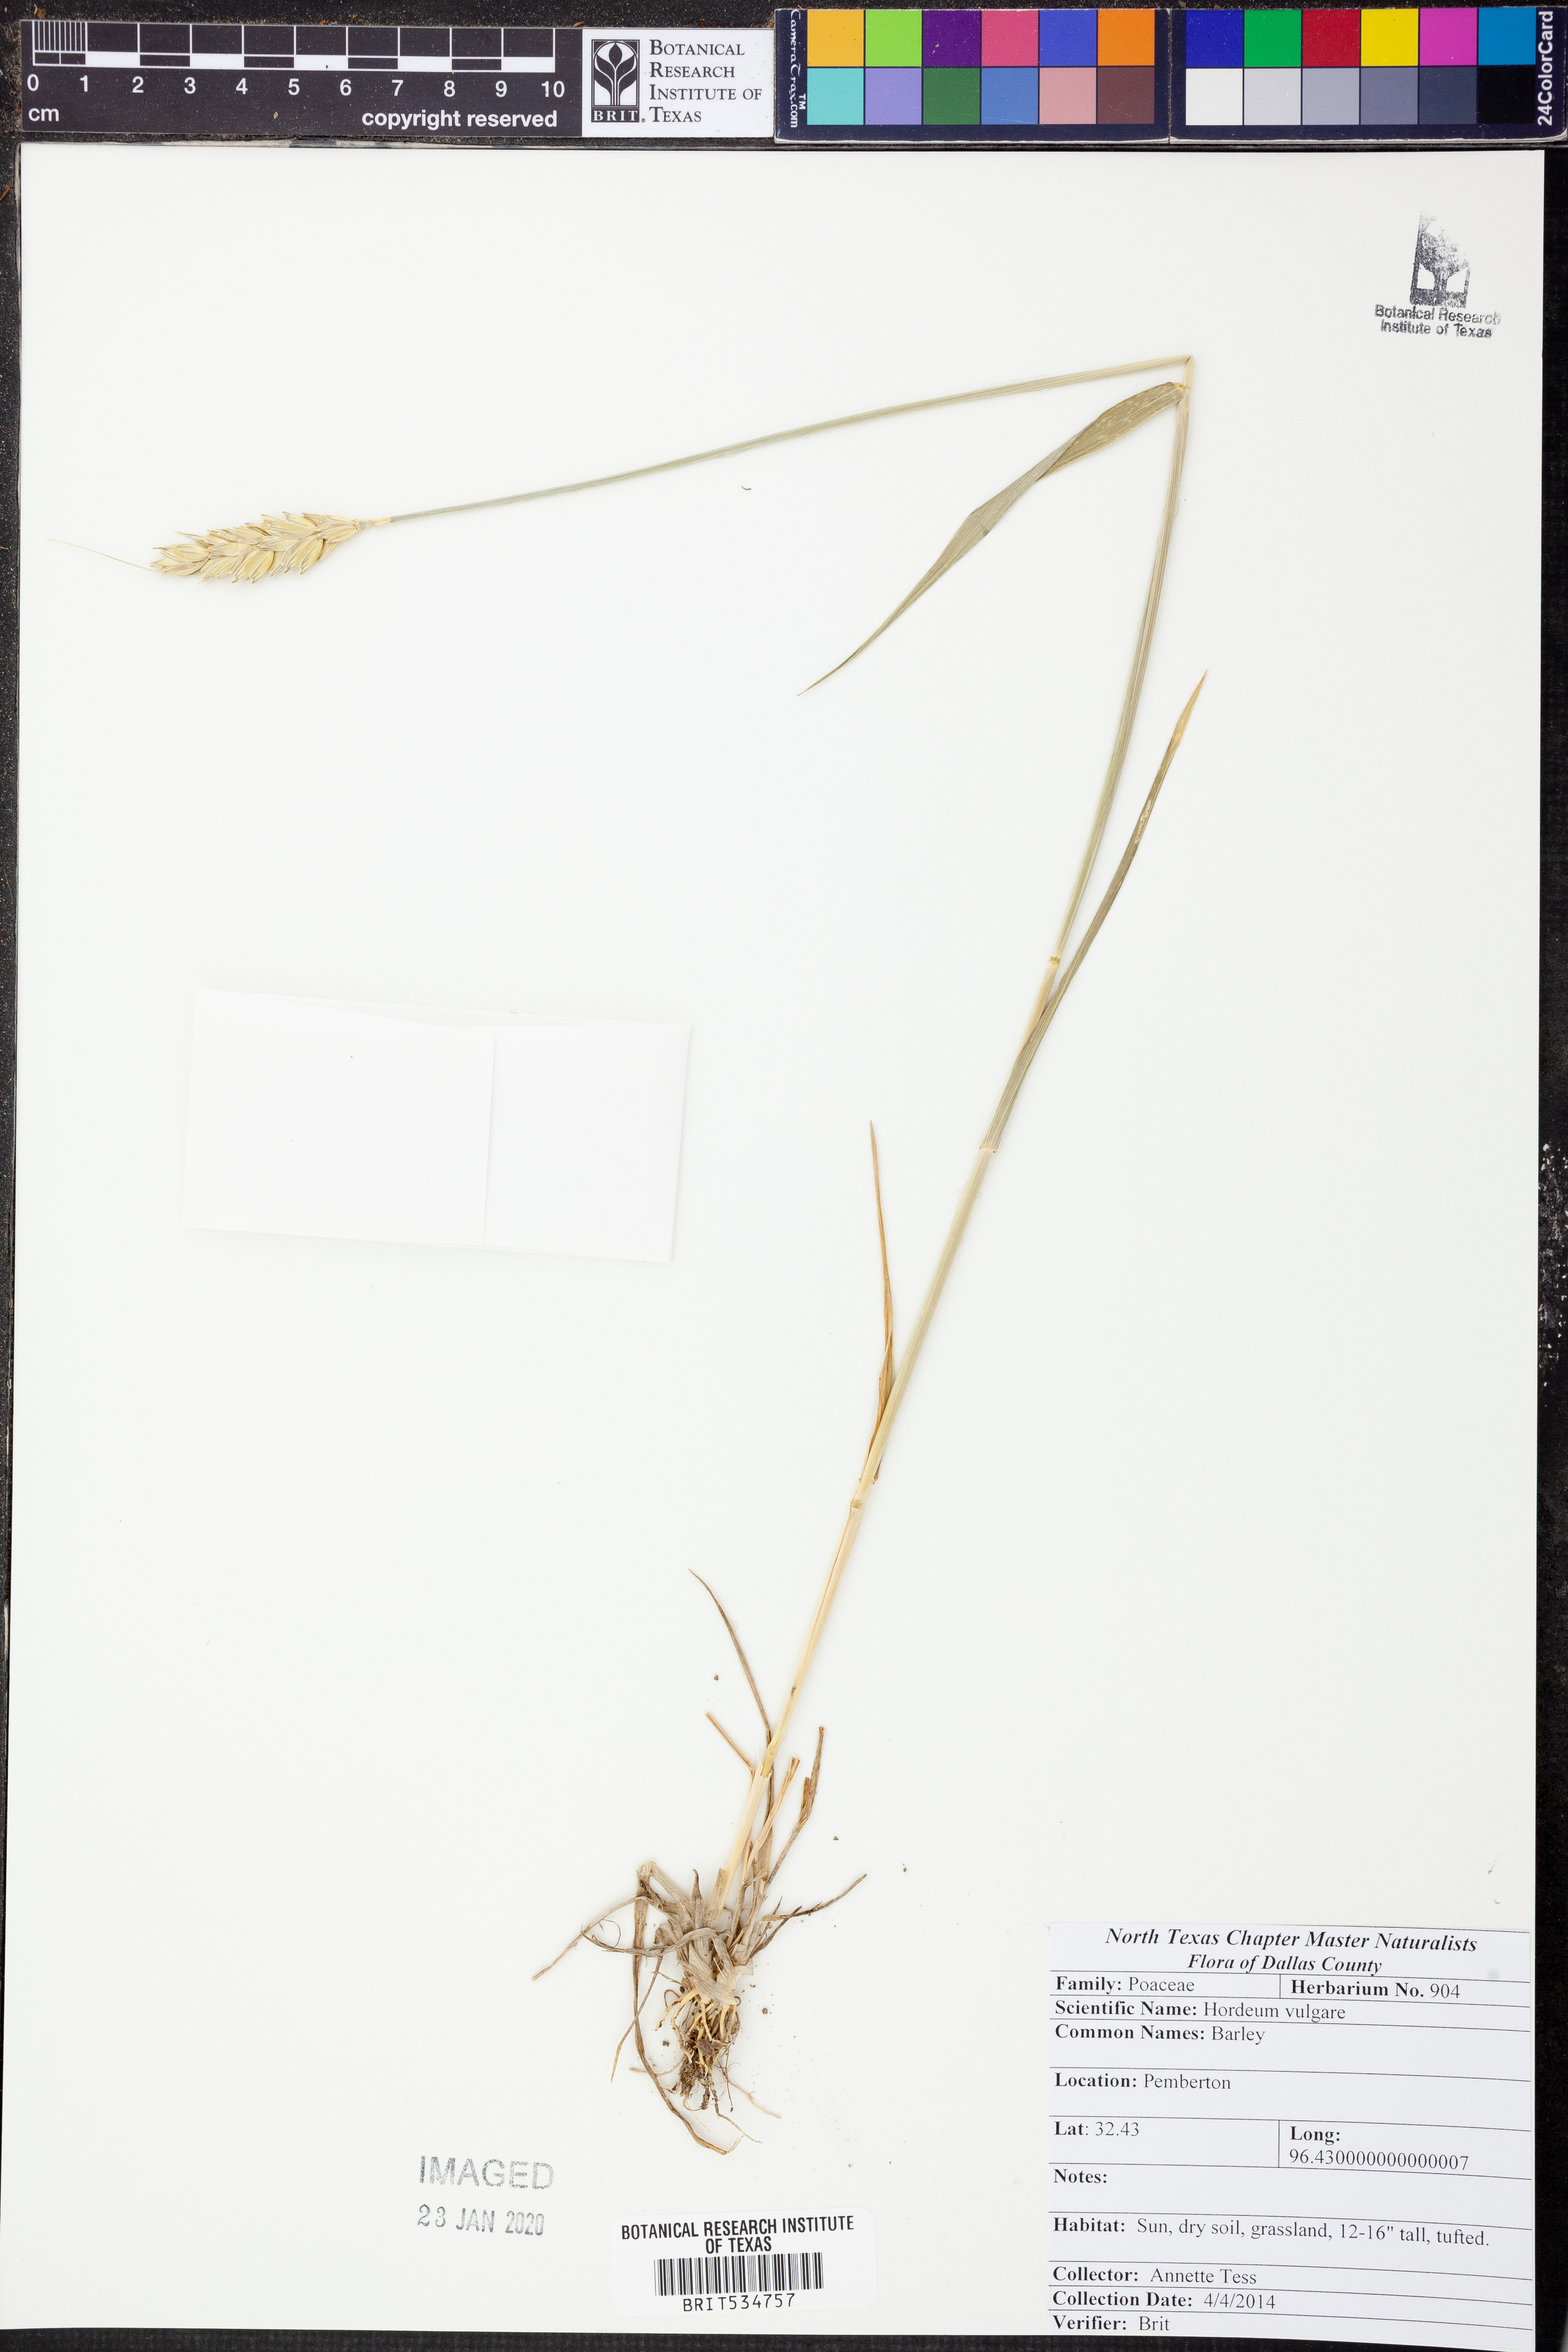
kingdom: Plantae
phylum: Tracheophyta
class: Liliopsida
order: Poales
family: Poaceae
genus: Hordeum
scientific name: Hordeum vulgare
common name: Common barley
